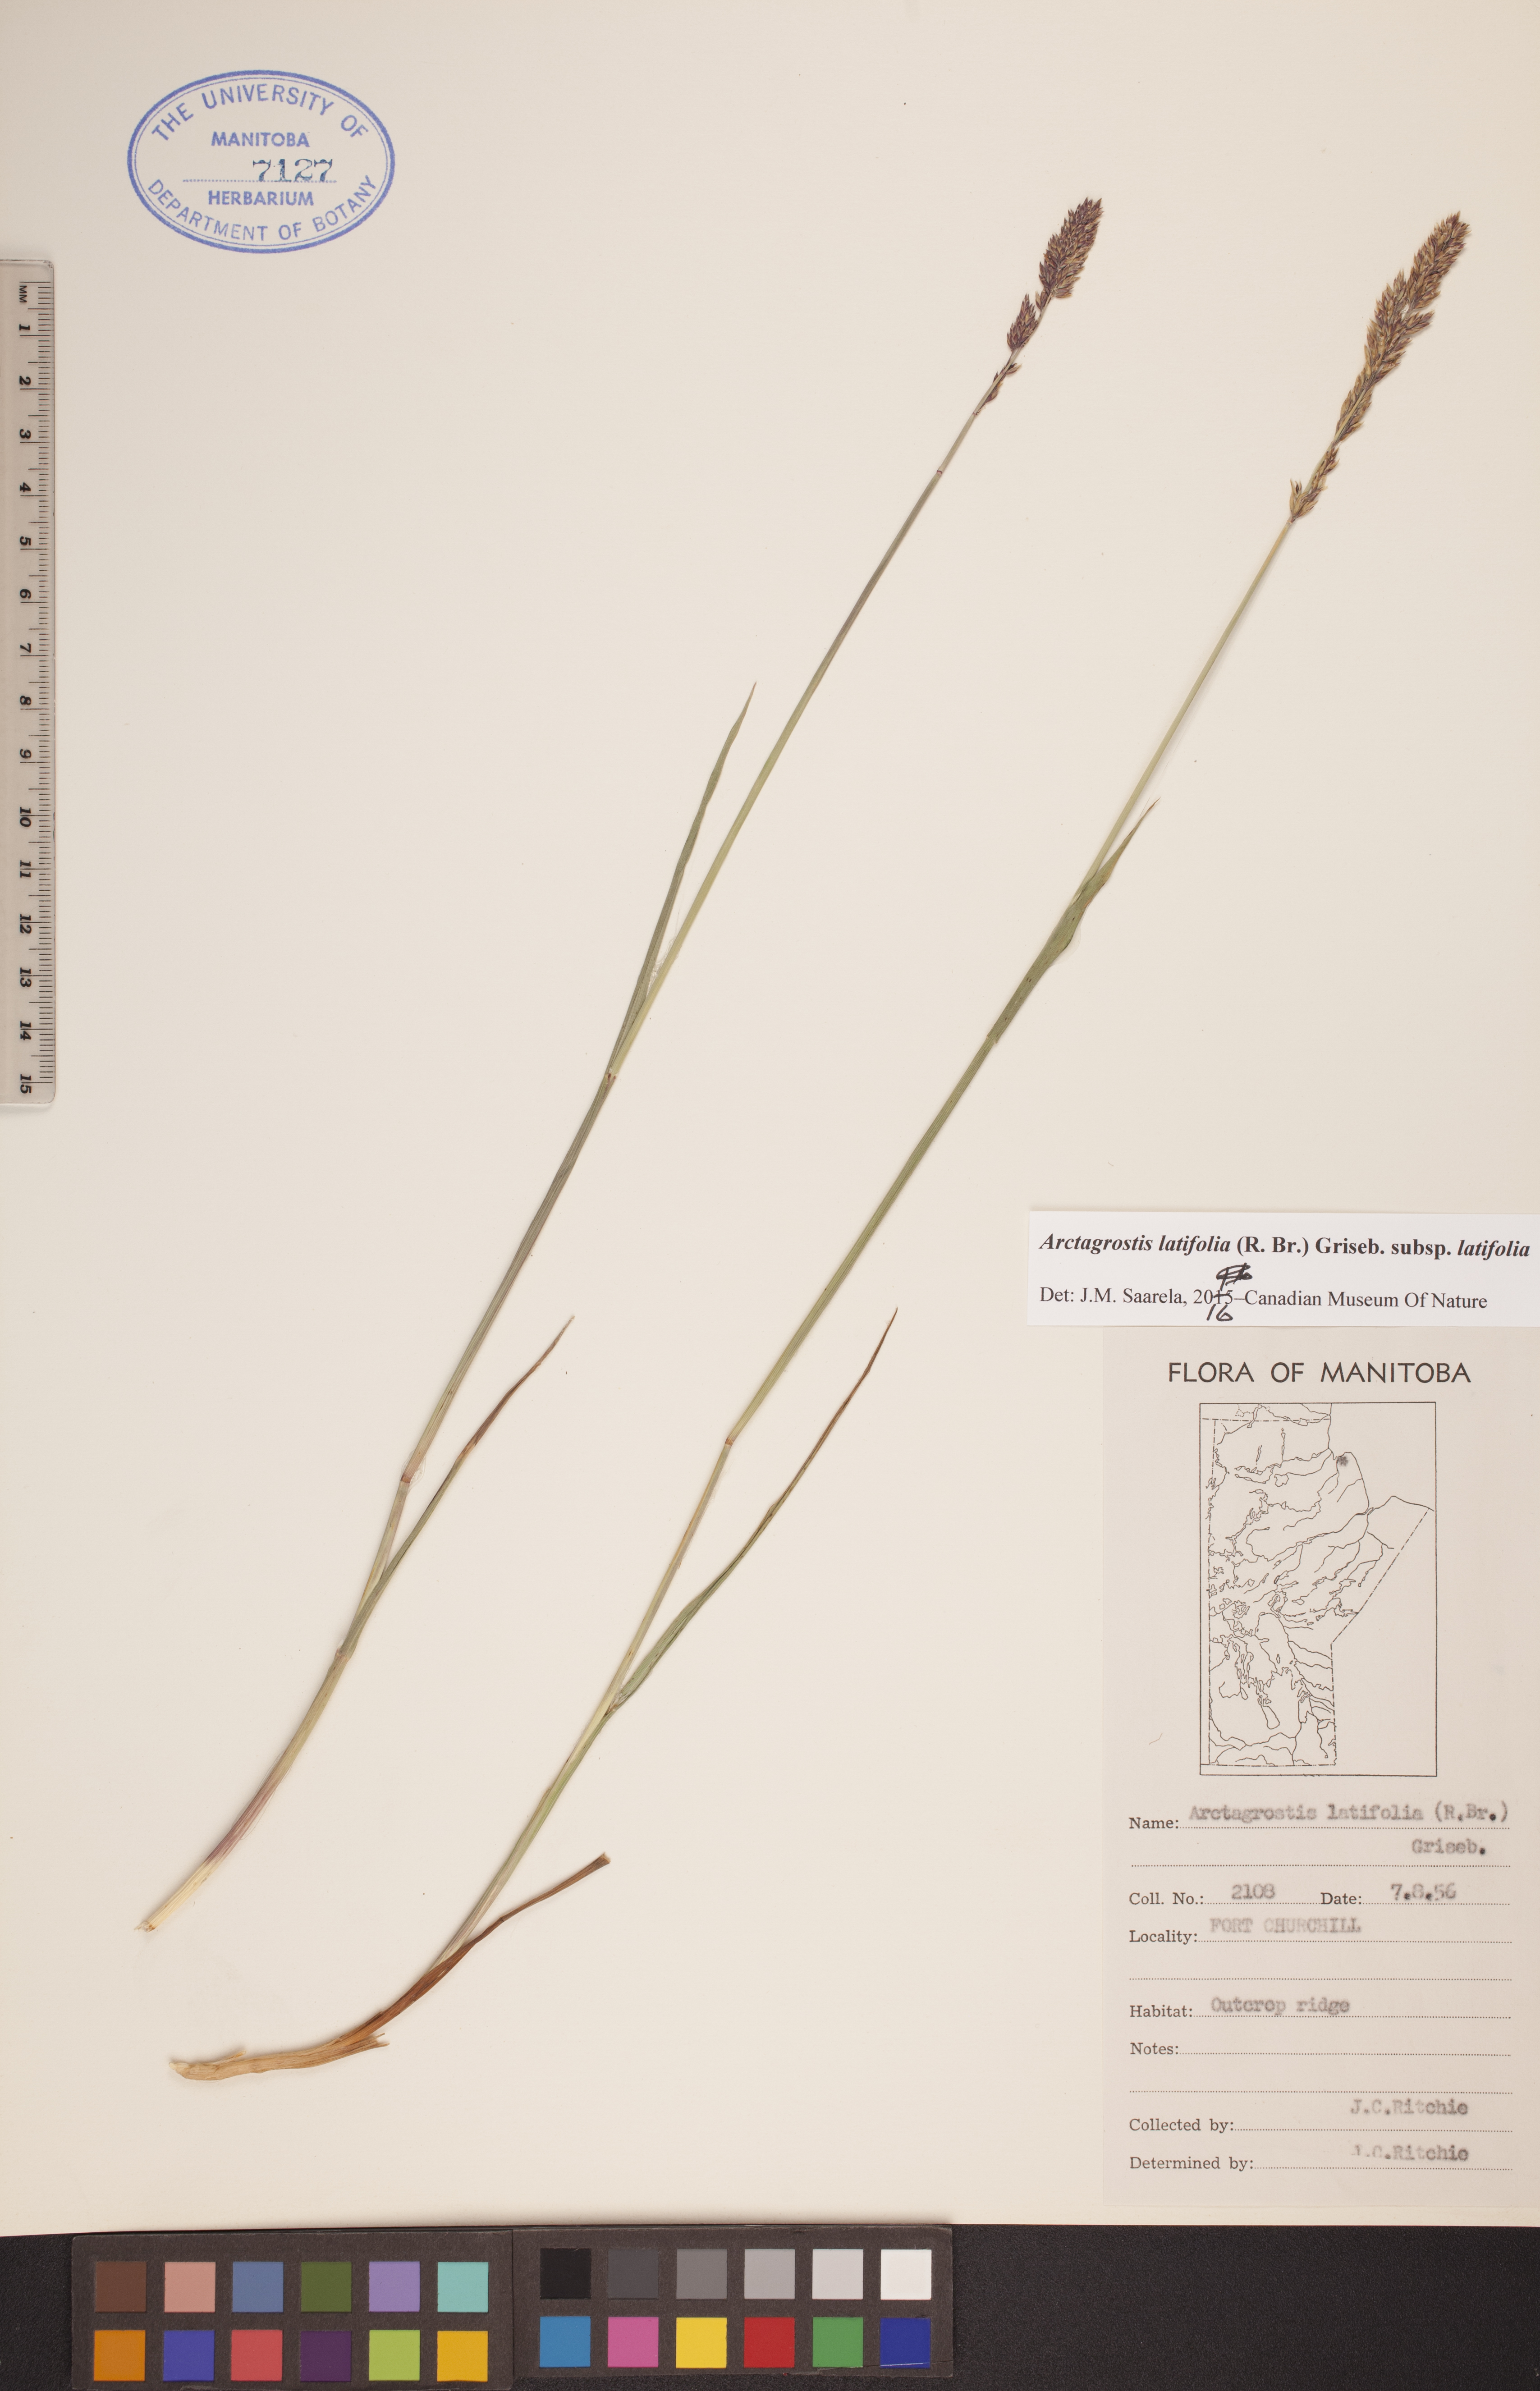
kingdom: Plantae
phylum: Tracheophyta
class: Liliopsida
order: Poales
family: Poaceae
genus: Arctagrostis
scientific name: Arctagrostis latifolia
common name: Arctic grass
